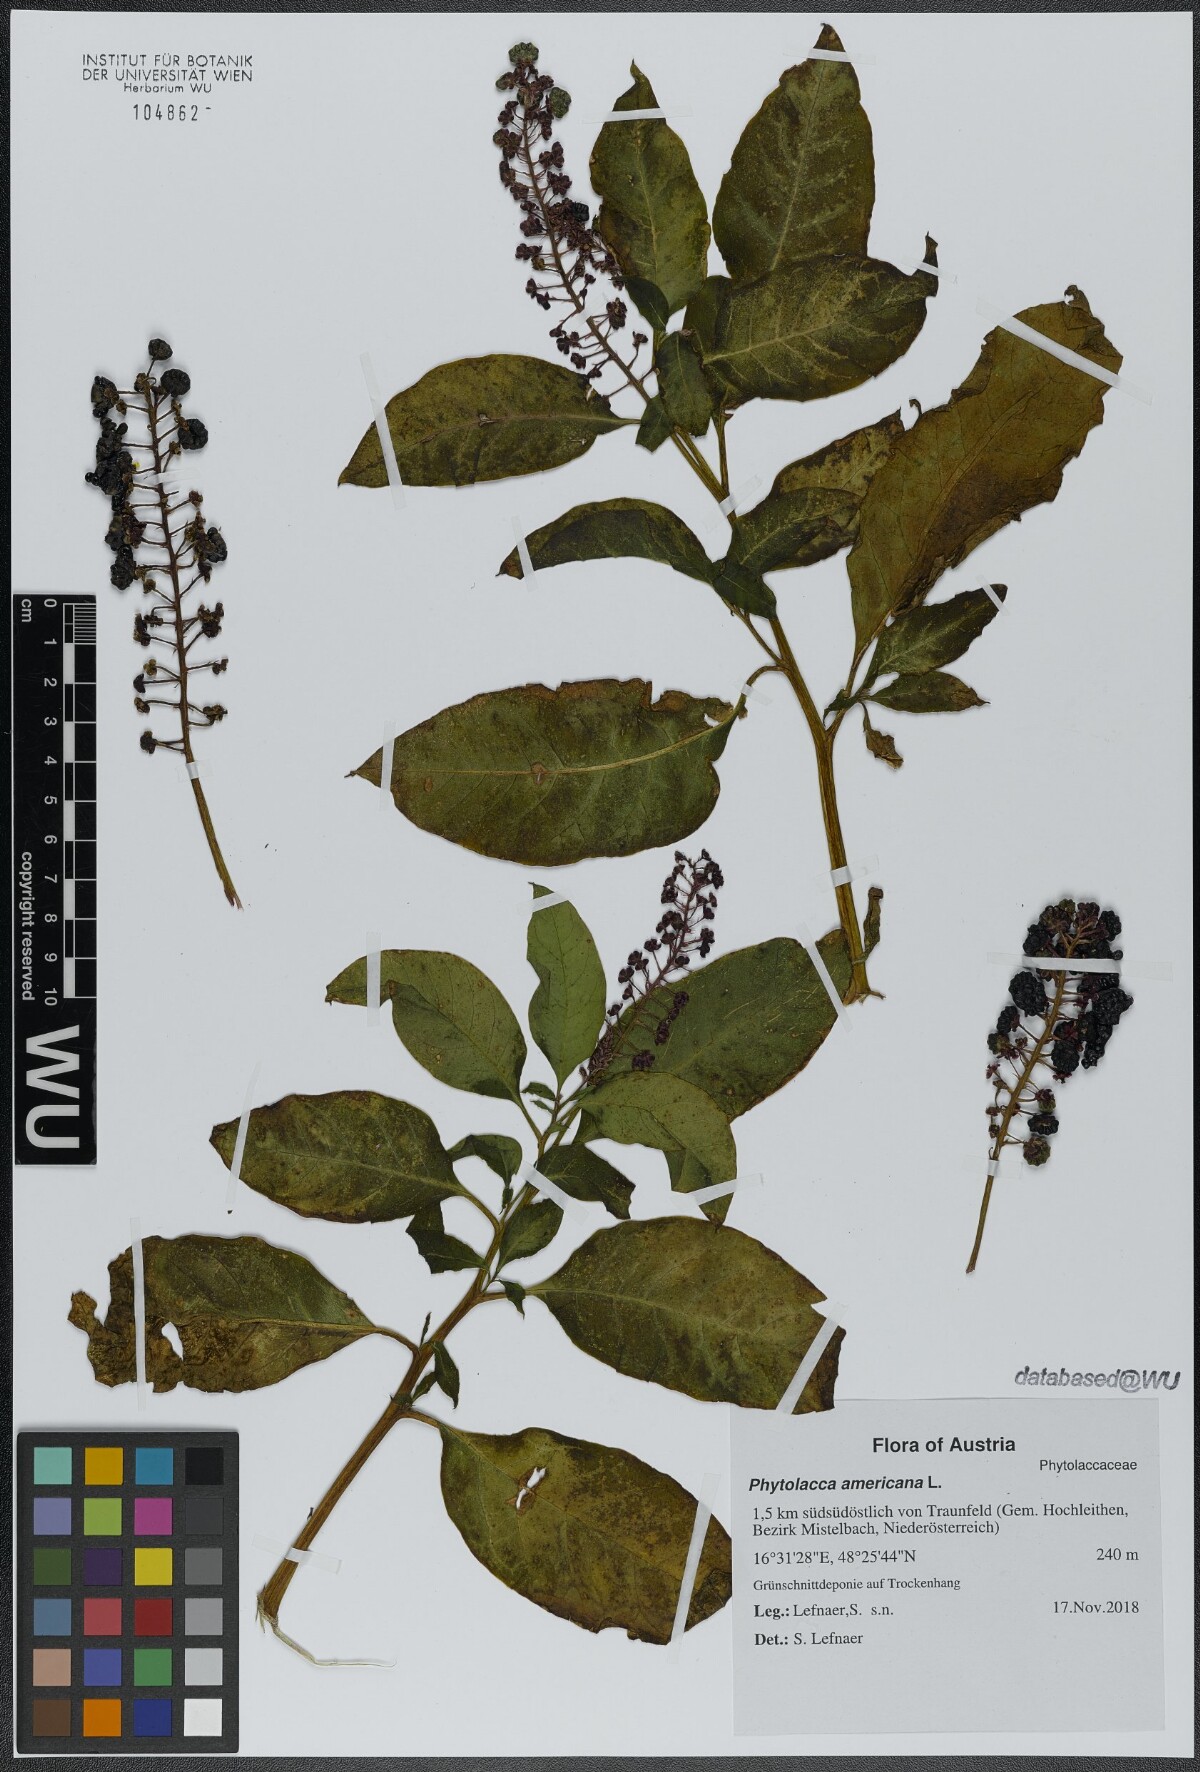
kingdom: Plantae
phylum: Tracheophyta
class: Magnoliopsida
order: Caryophyllales
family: Phytolaccaceae
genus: Phytolacca
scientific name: Phytolacca americana
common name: American pokeweed
